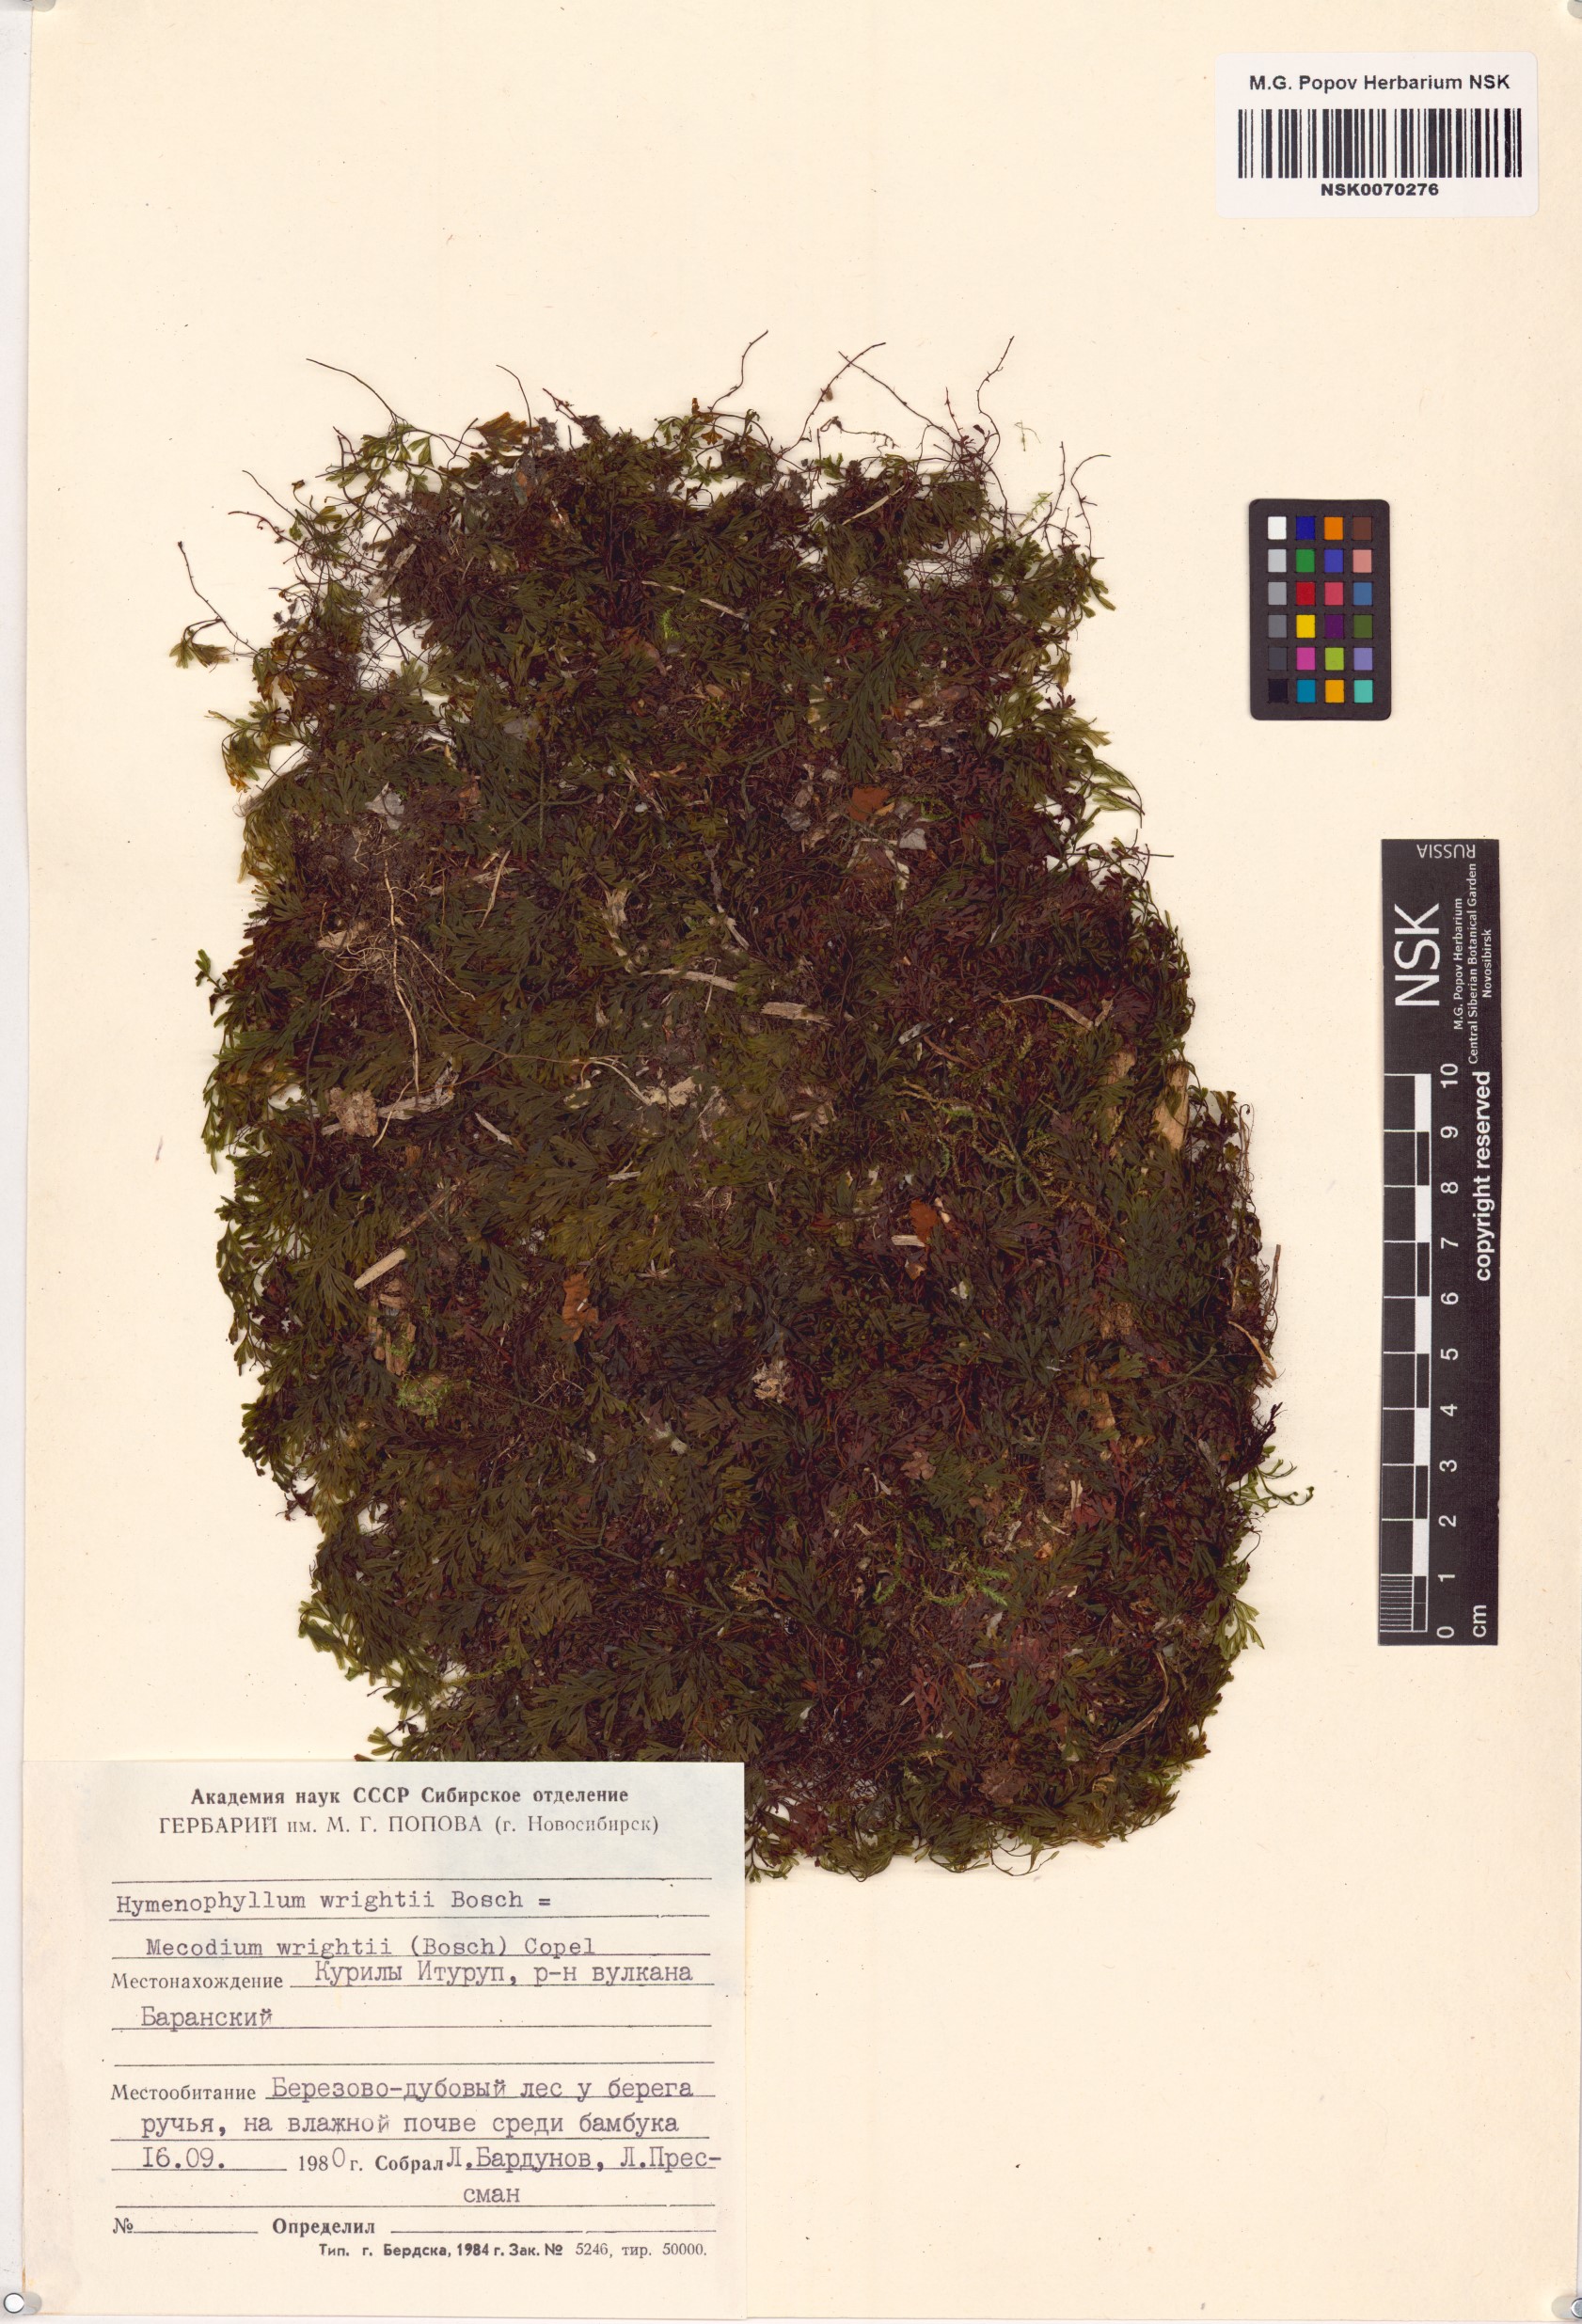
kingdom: Plantae
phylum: Tracheophyta
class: Polypodiopsida
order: Hymenophyllales
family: Hymenophyllaceae
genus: Hymenophyllum
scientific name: Hymenophyllum wrightii
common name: Wright's filmy fern
